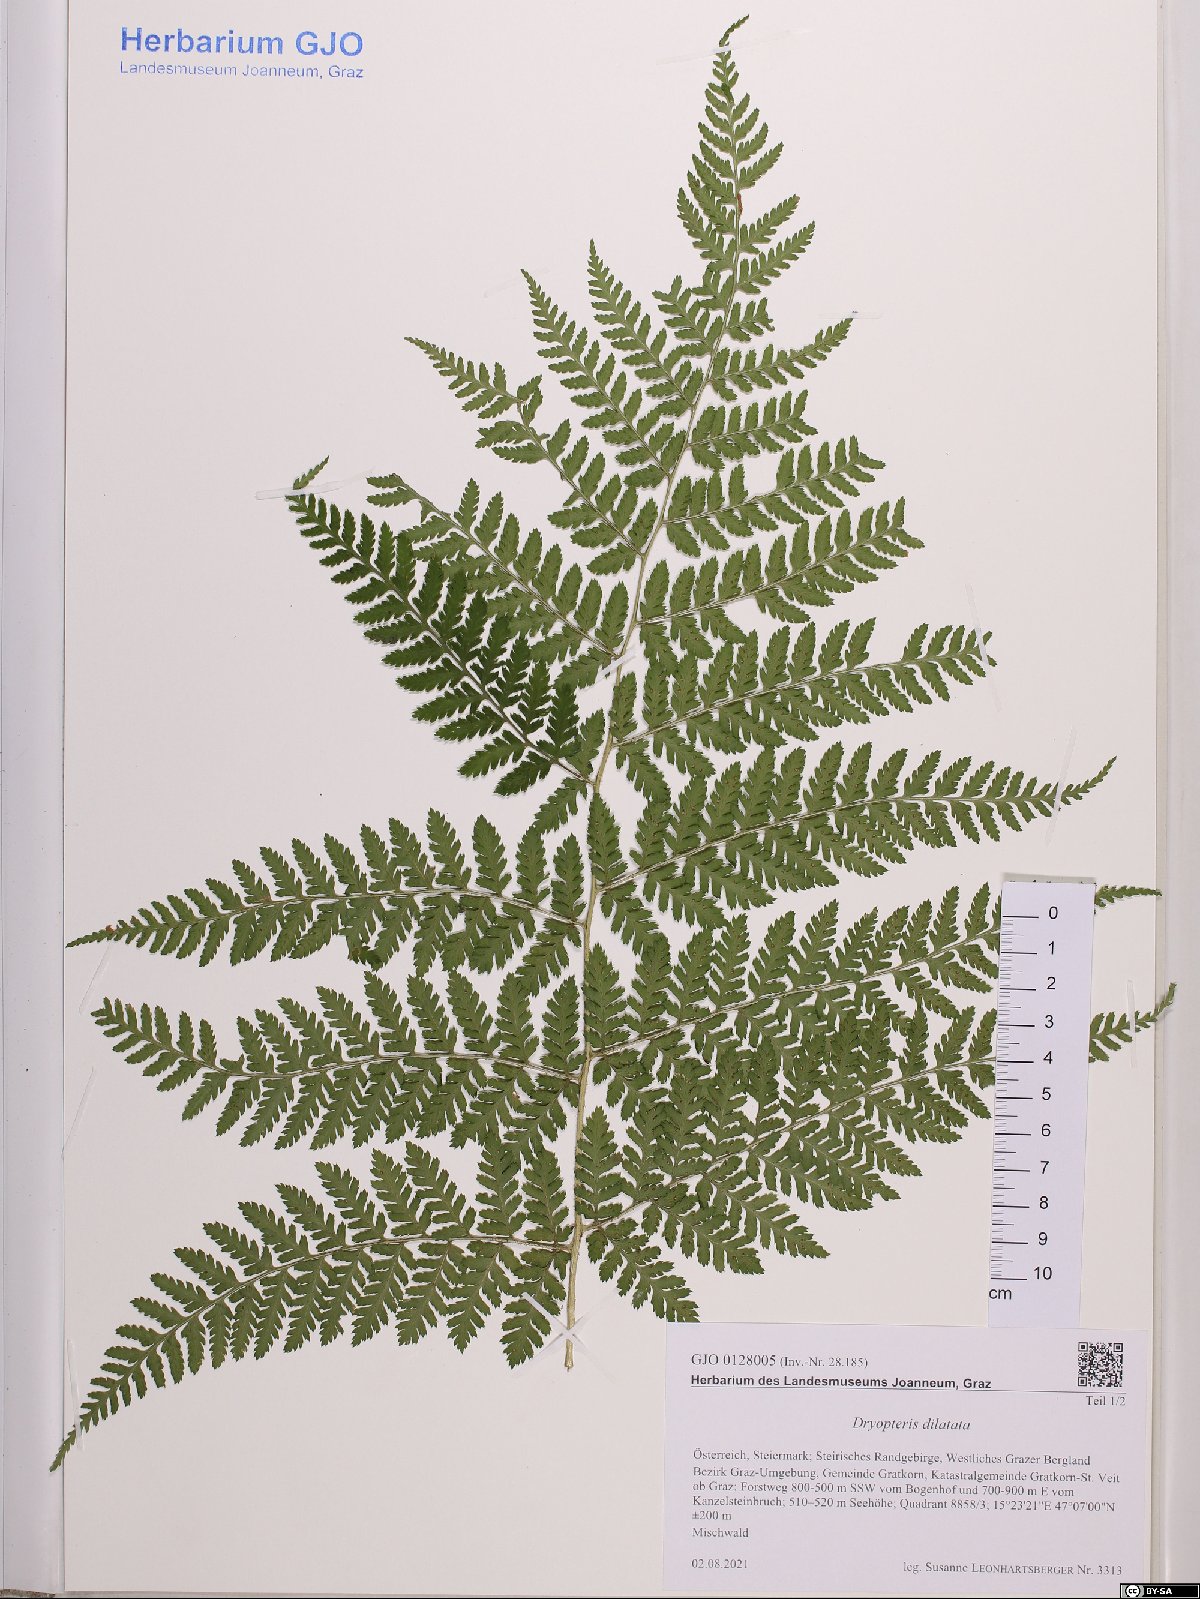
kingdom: Plantae
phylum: Tracheophyta
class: Polypodiopsida
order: Polypodiales
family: Dryopteridaceae
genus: Dryopteris
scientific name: Dryopteris dilatata
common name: Broad buckler-fern
